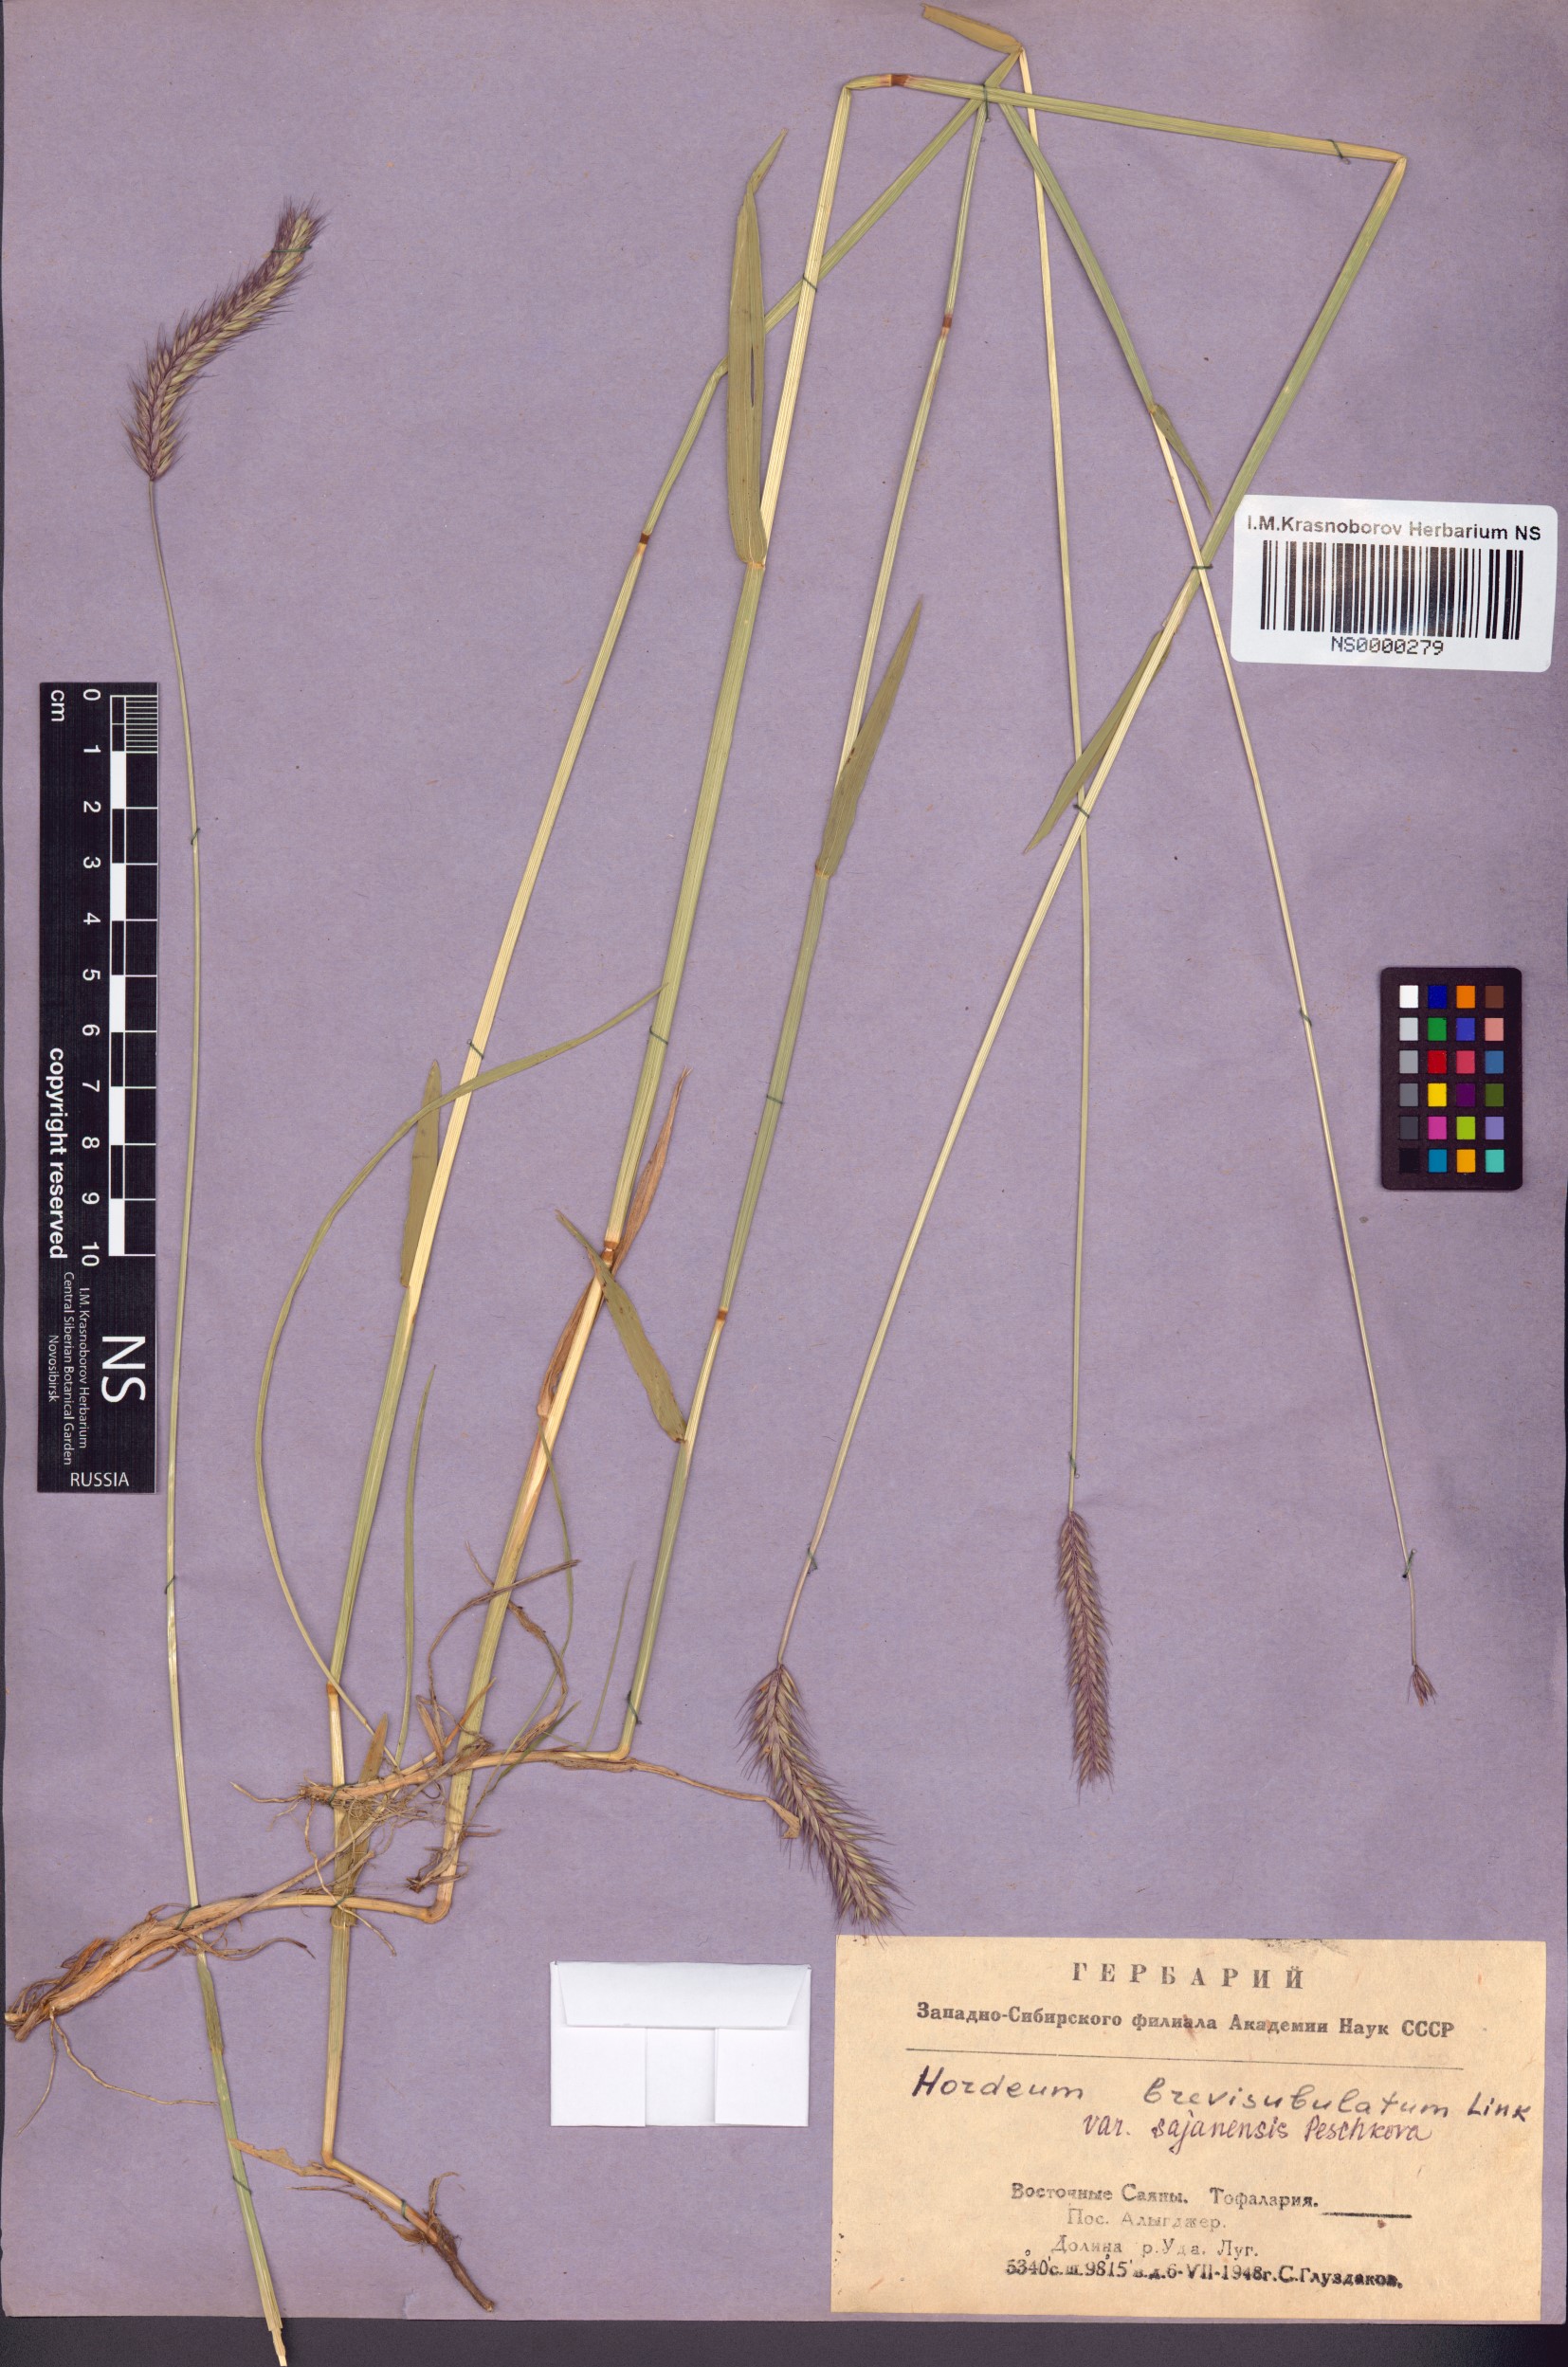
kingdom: Plantae
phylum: Tracheophyta
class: Liliopsida
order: Poales
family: Poaceae
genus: Hordeum
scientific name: Hordeum brevisubulatum
